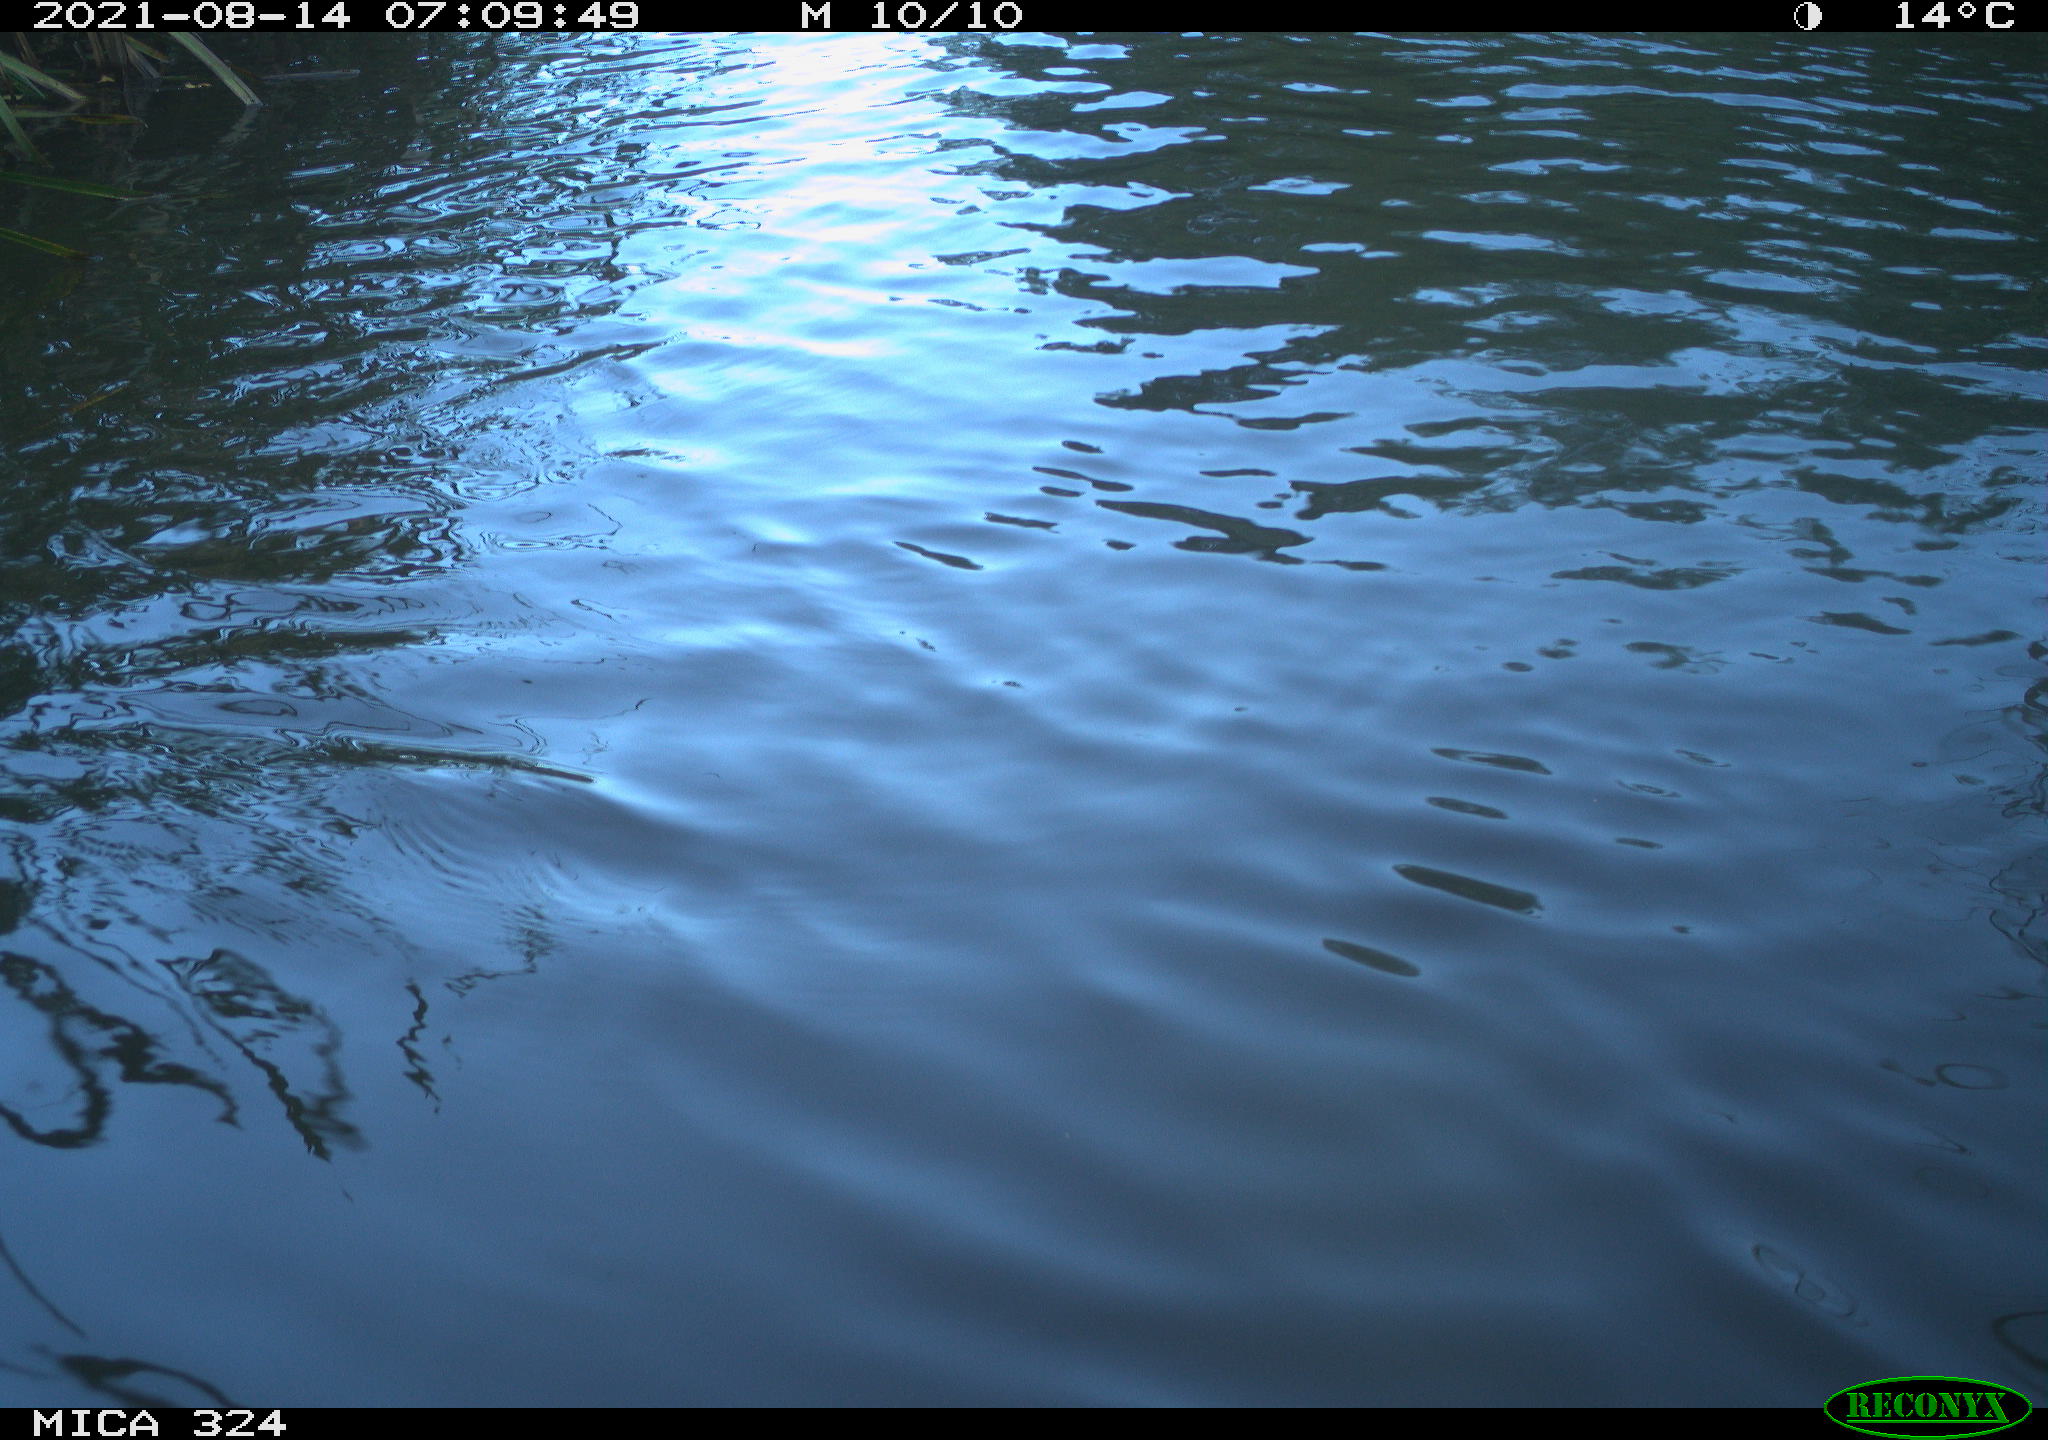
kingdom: Animalia
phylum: Chordata
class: Aves
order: Anseriformes
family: Anatidae
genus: Anas
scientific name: Anas platyrhynchos
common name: Mallard
